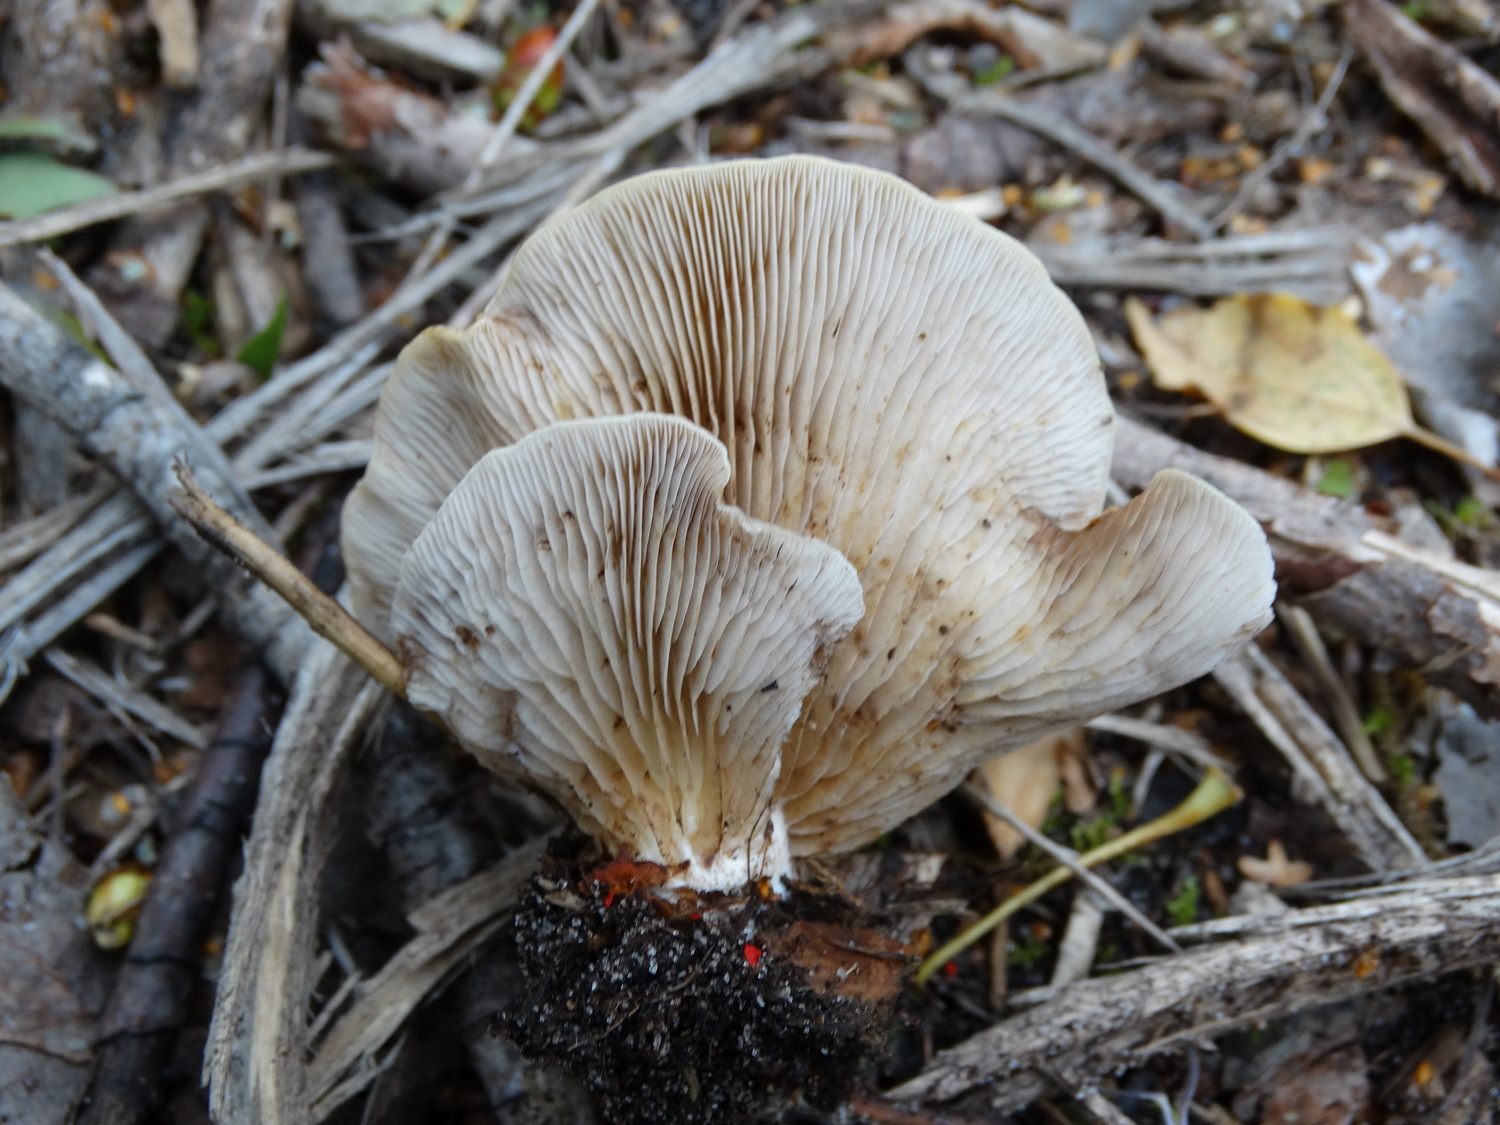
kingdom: Fungi
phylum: Basidiomycota
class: Agaricomycetes
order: Agaricales
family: Crepidotaceae
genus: Crepidotus
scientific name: Crepidotus mollis
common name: blød muslingesvamp
